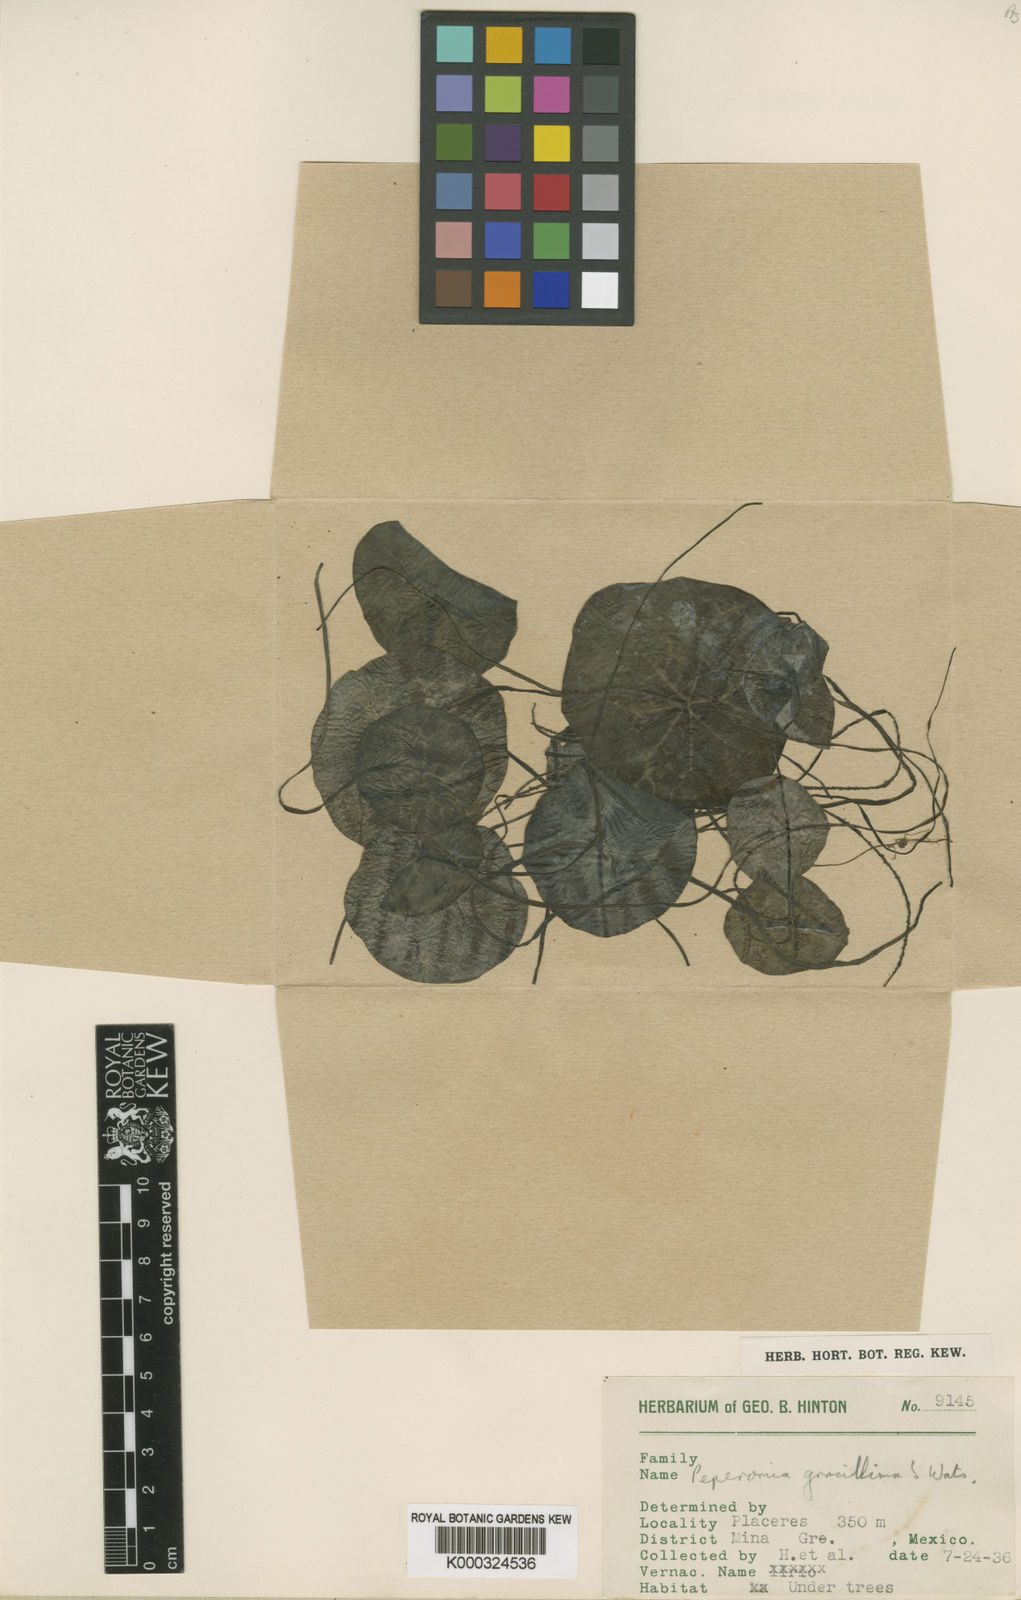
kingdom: Plantae
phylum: Tracheophyta
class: Magnoliopsida
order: Piperales
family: Piperaceae
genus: Peperomia
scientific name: Peperomia gracillima
